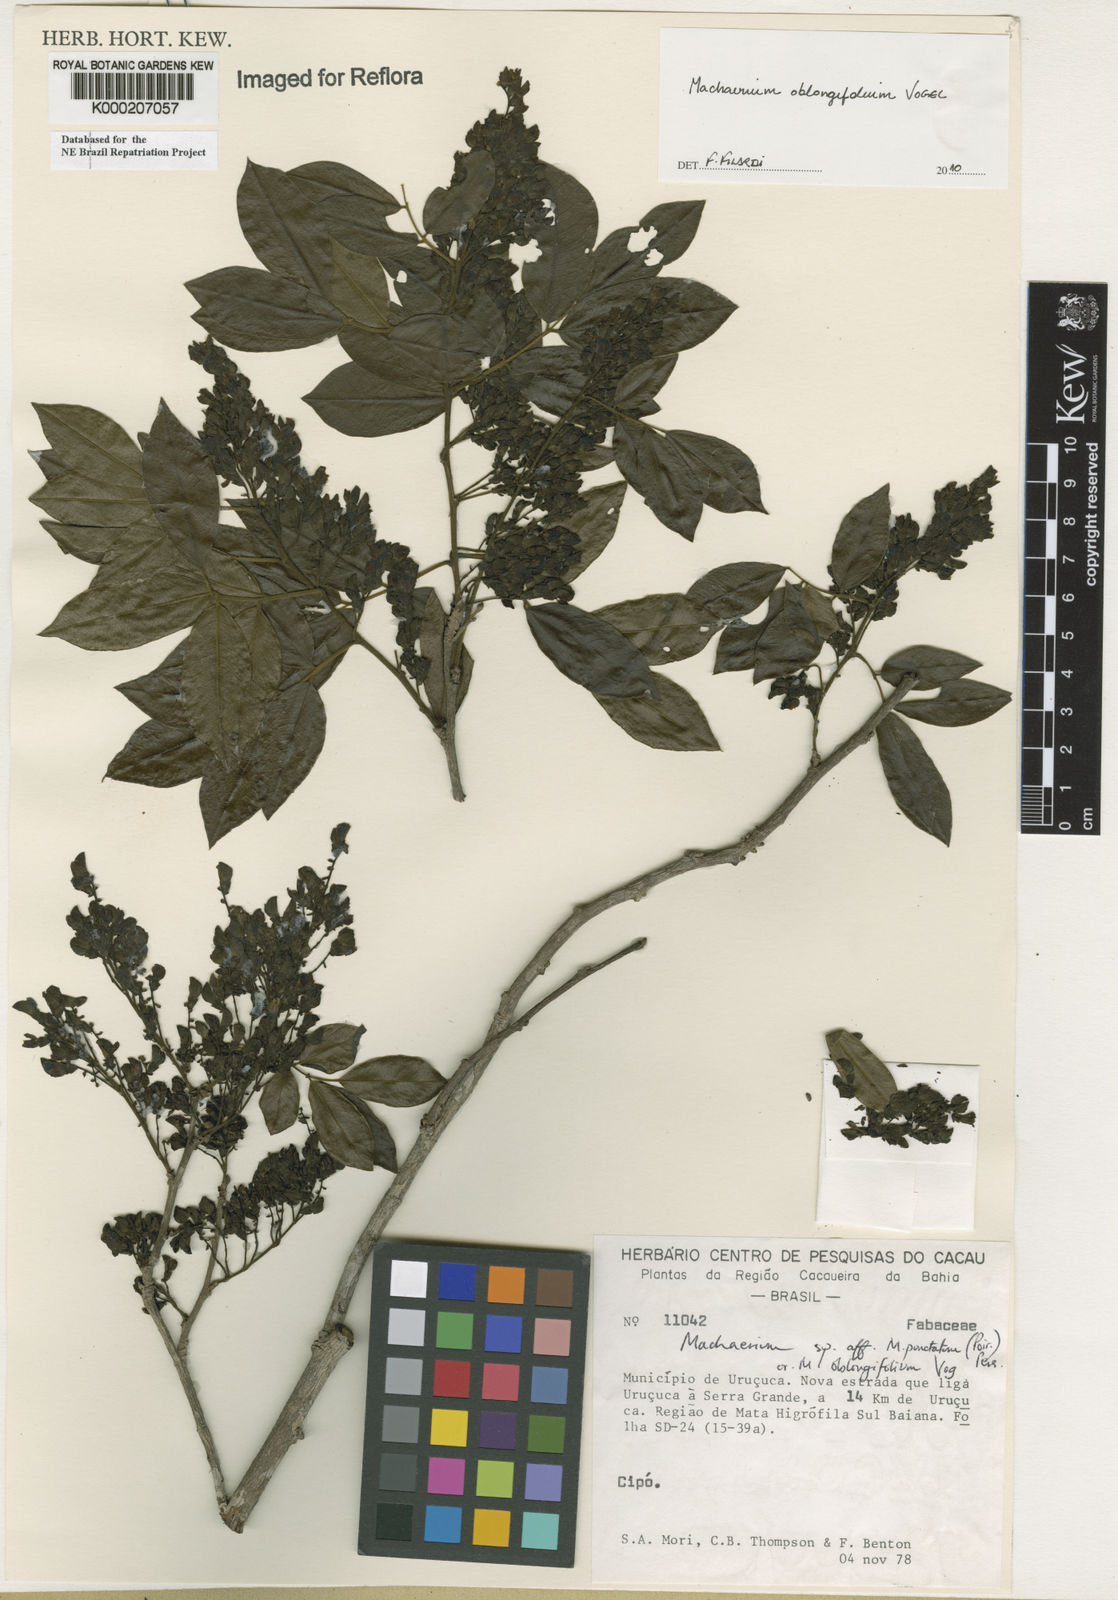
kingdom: Plantae
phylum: Tracheophyta
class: Magnoliopsida
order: Fabales
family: Fabaceae
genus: Machaerium
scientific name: Machaerium punctatum
